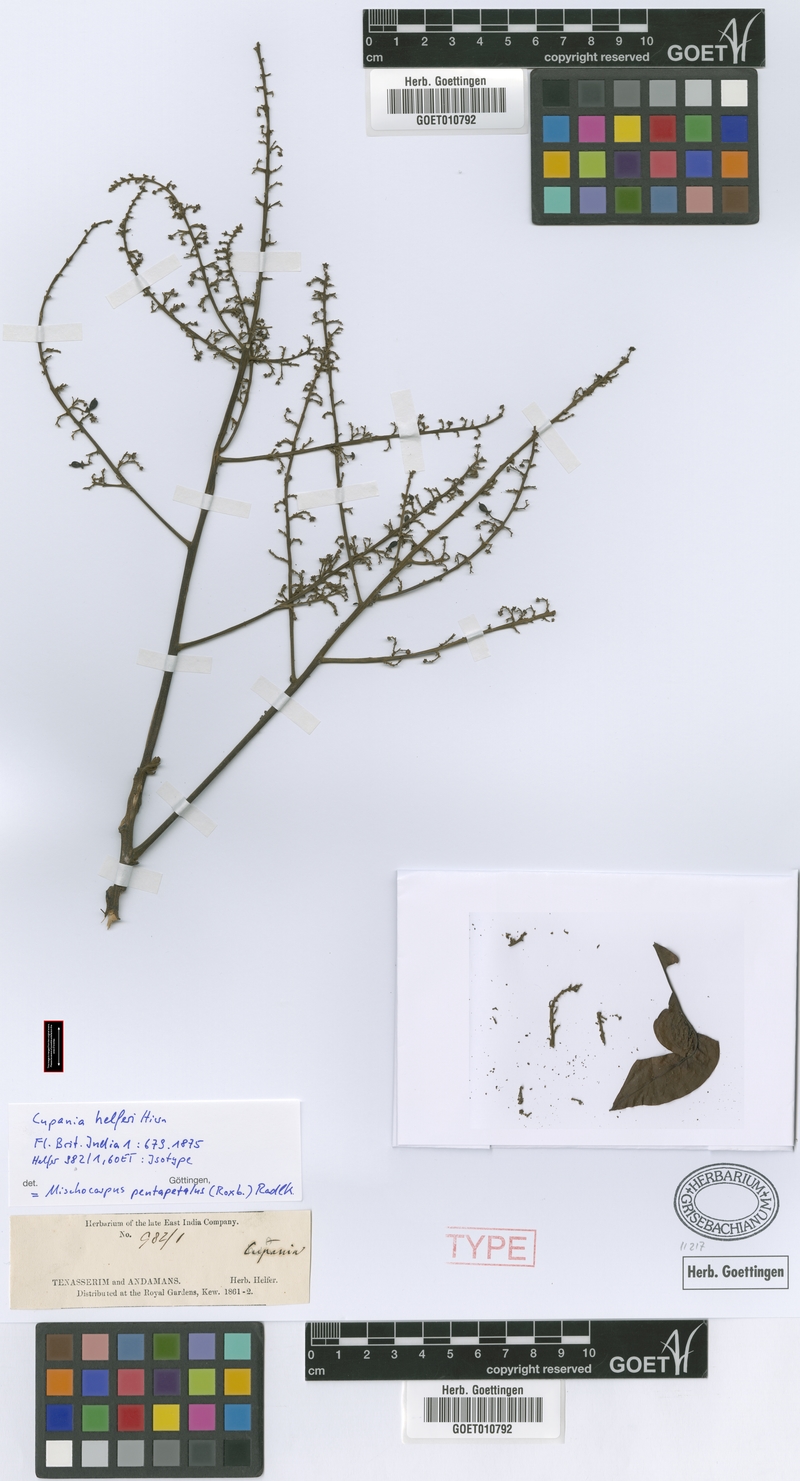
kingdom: Plantae
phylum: Tracheophyta
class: Magnoliopsida
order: Sapindales
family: Sapindaceae
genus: Mischocarpus
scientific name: Mischocarpus pentapetalus
